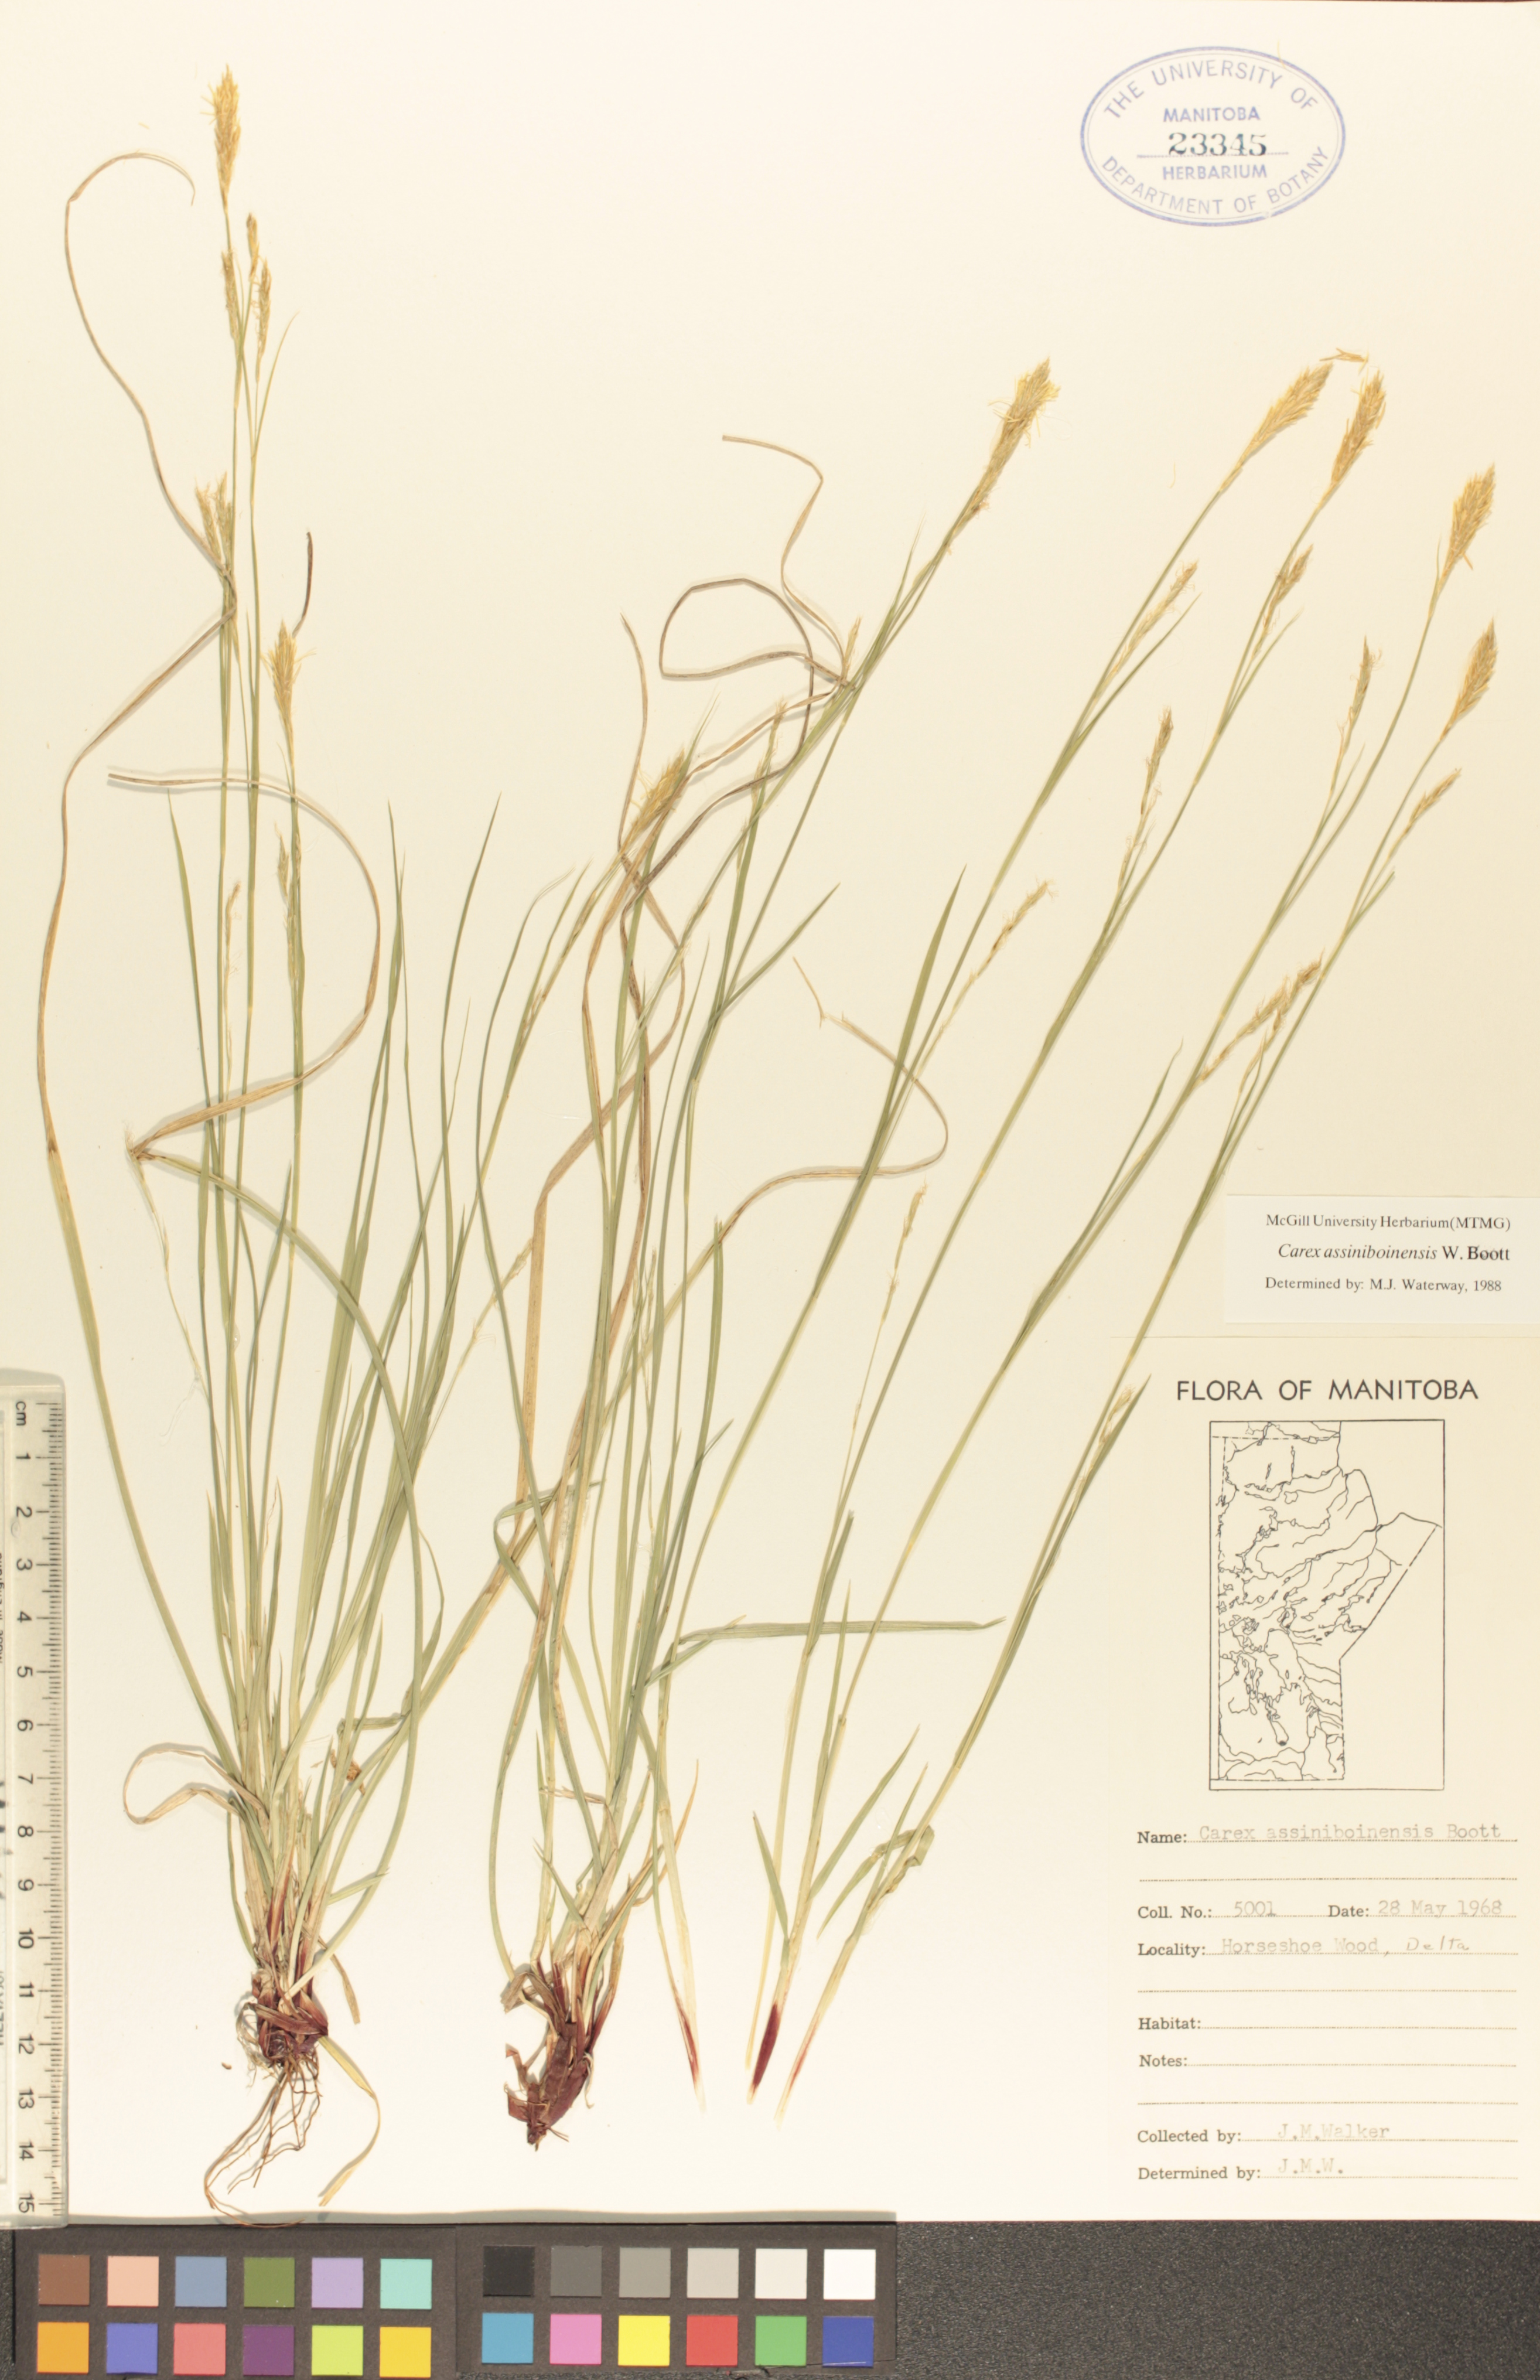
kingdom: Plantae
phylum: Tracheophyta
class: Liliopsida
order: Poales
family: Cyperaceae
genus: Carex
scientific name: Carex assiniboinensis
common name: Assiniboia sedge
